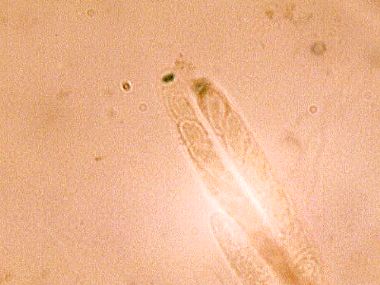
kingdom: Fungi
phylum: Ascomycota
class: Sordariomycetes
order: Xylariales
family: Hypoxylaceae
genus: Jackrogersella
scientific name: Jackrogersella cohaerens
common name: sammenflydende kulbær
